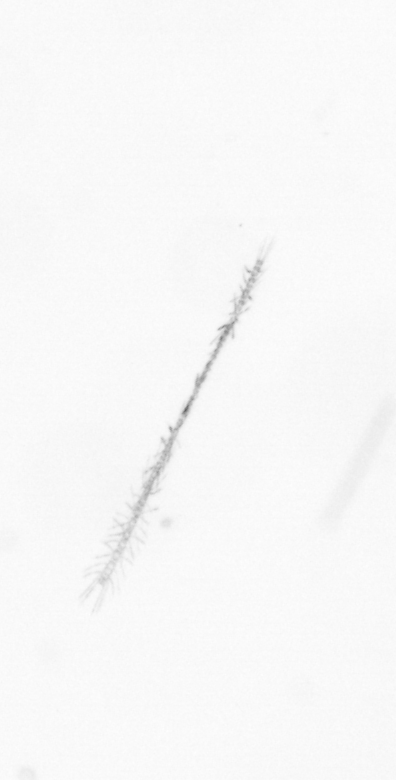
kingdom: Chromista
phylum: Ochrophyta
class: Bacillariophyceae
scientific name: Bacillariophyceae
